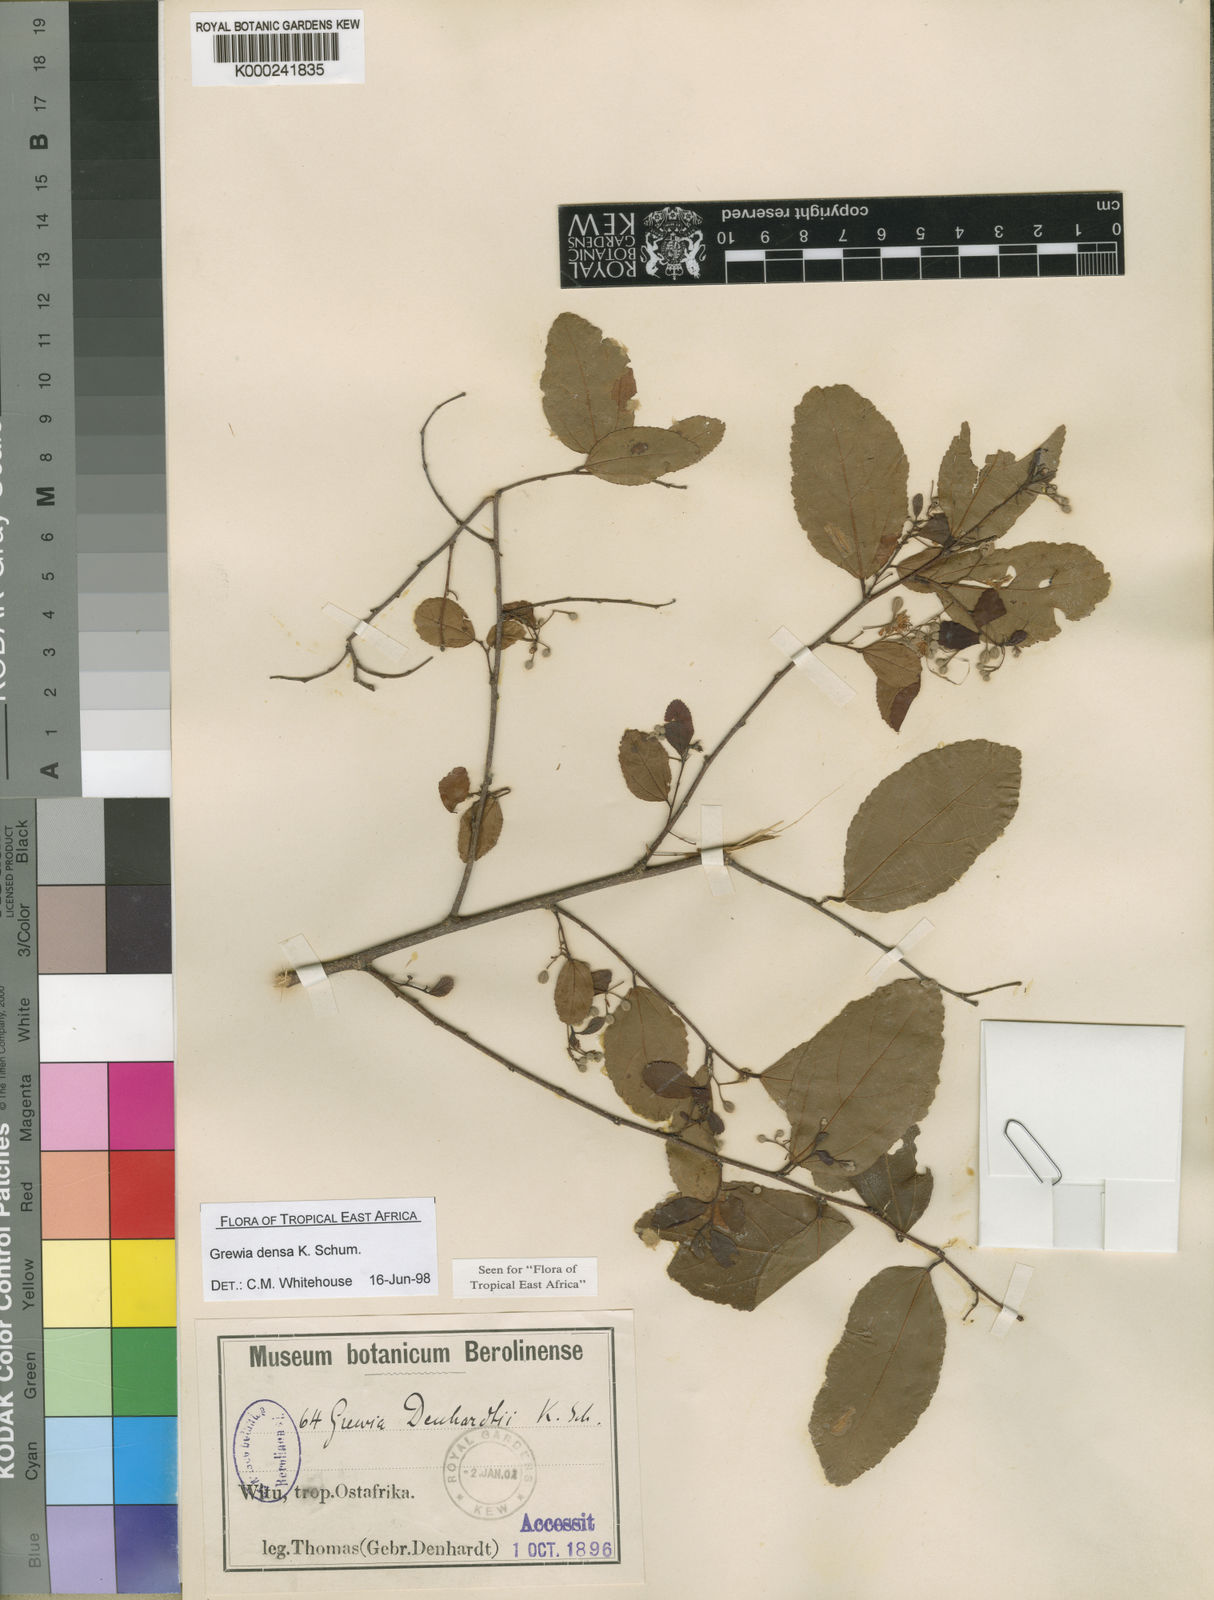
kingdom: Plantae
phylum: Tracheophyta
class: Magnoliopsida
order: Malvales
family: Malvaceae
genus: Grewia
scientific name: Grewia densa
